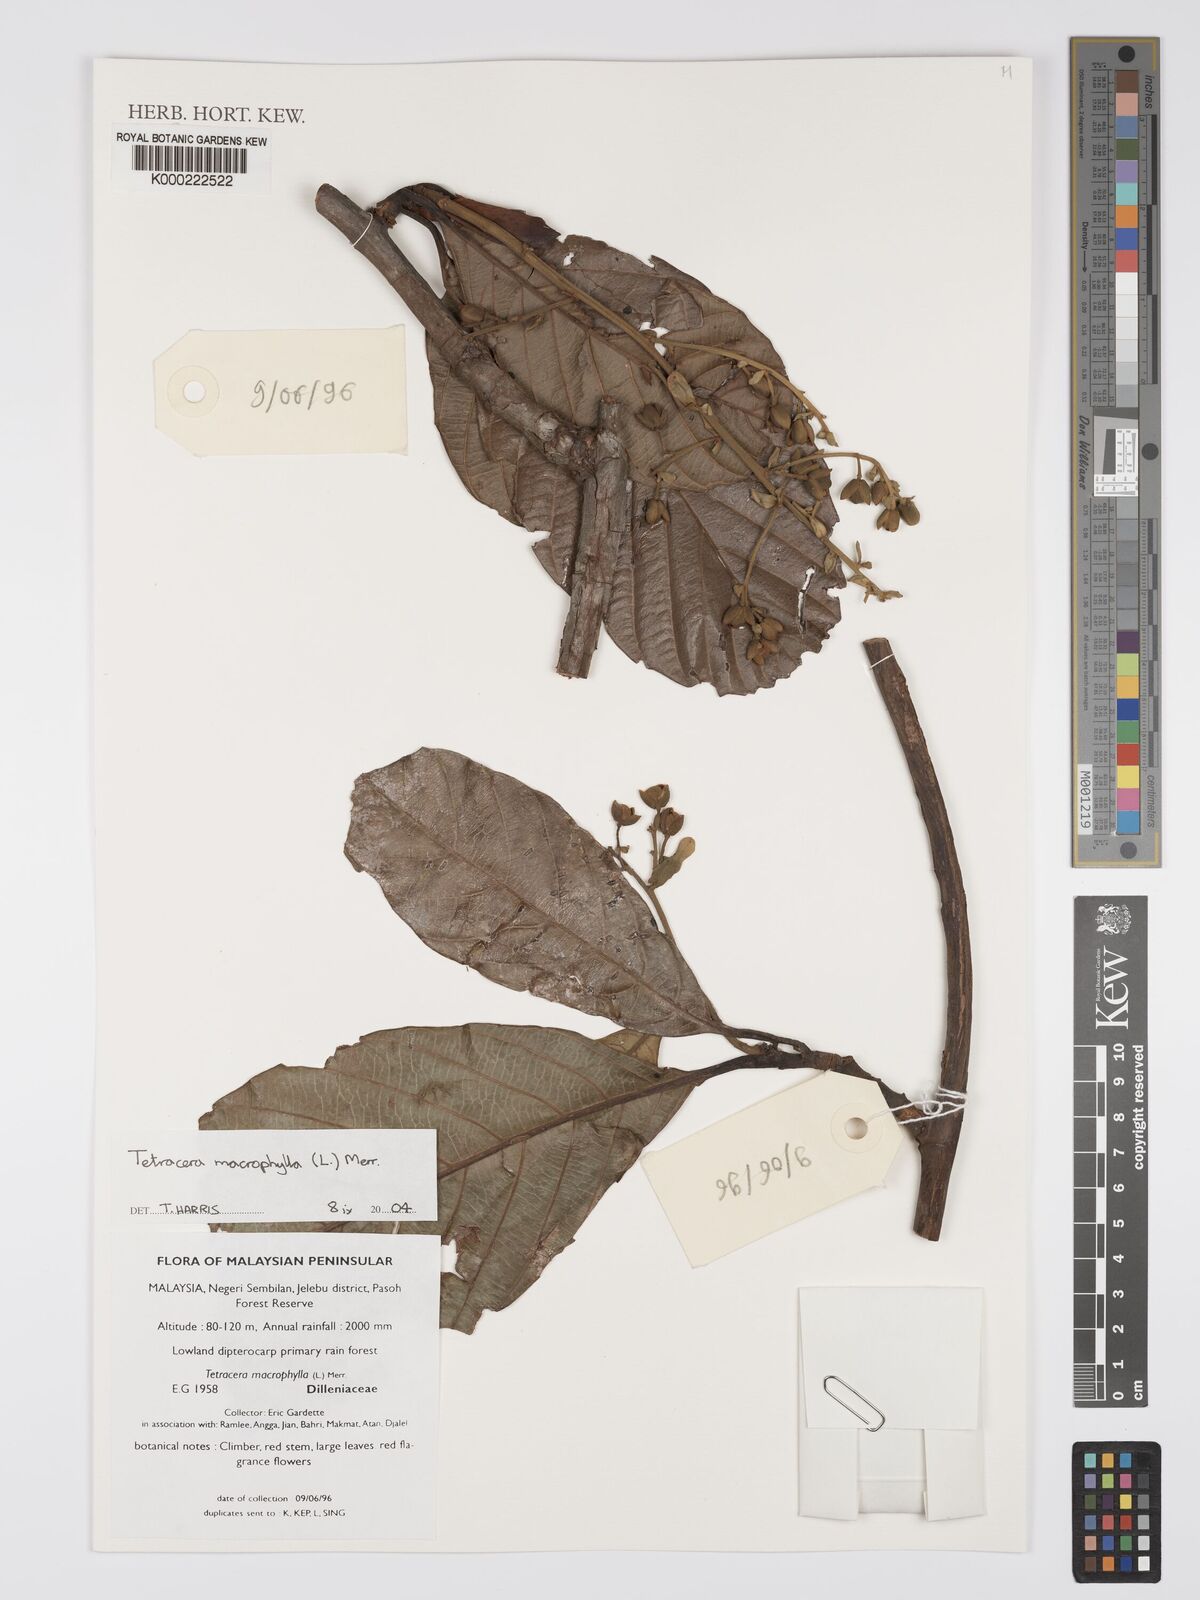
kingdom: Plantae
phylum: Tracheophyta
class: Magnoliopsida
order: Dilleniales
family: Dilleniaceae
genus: Tetracera
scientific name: Tetracera macrophylla
